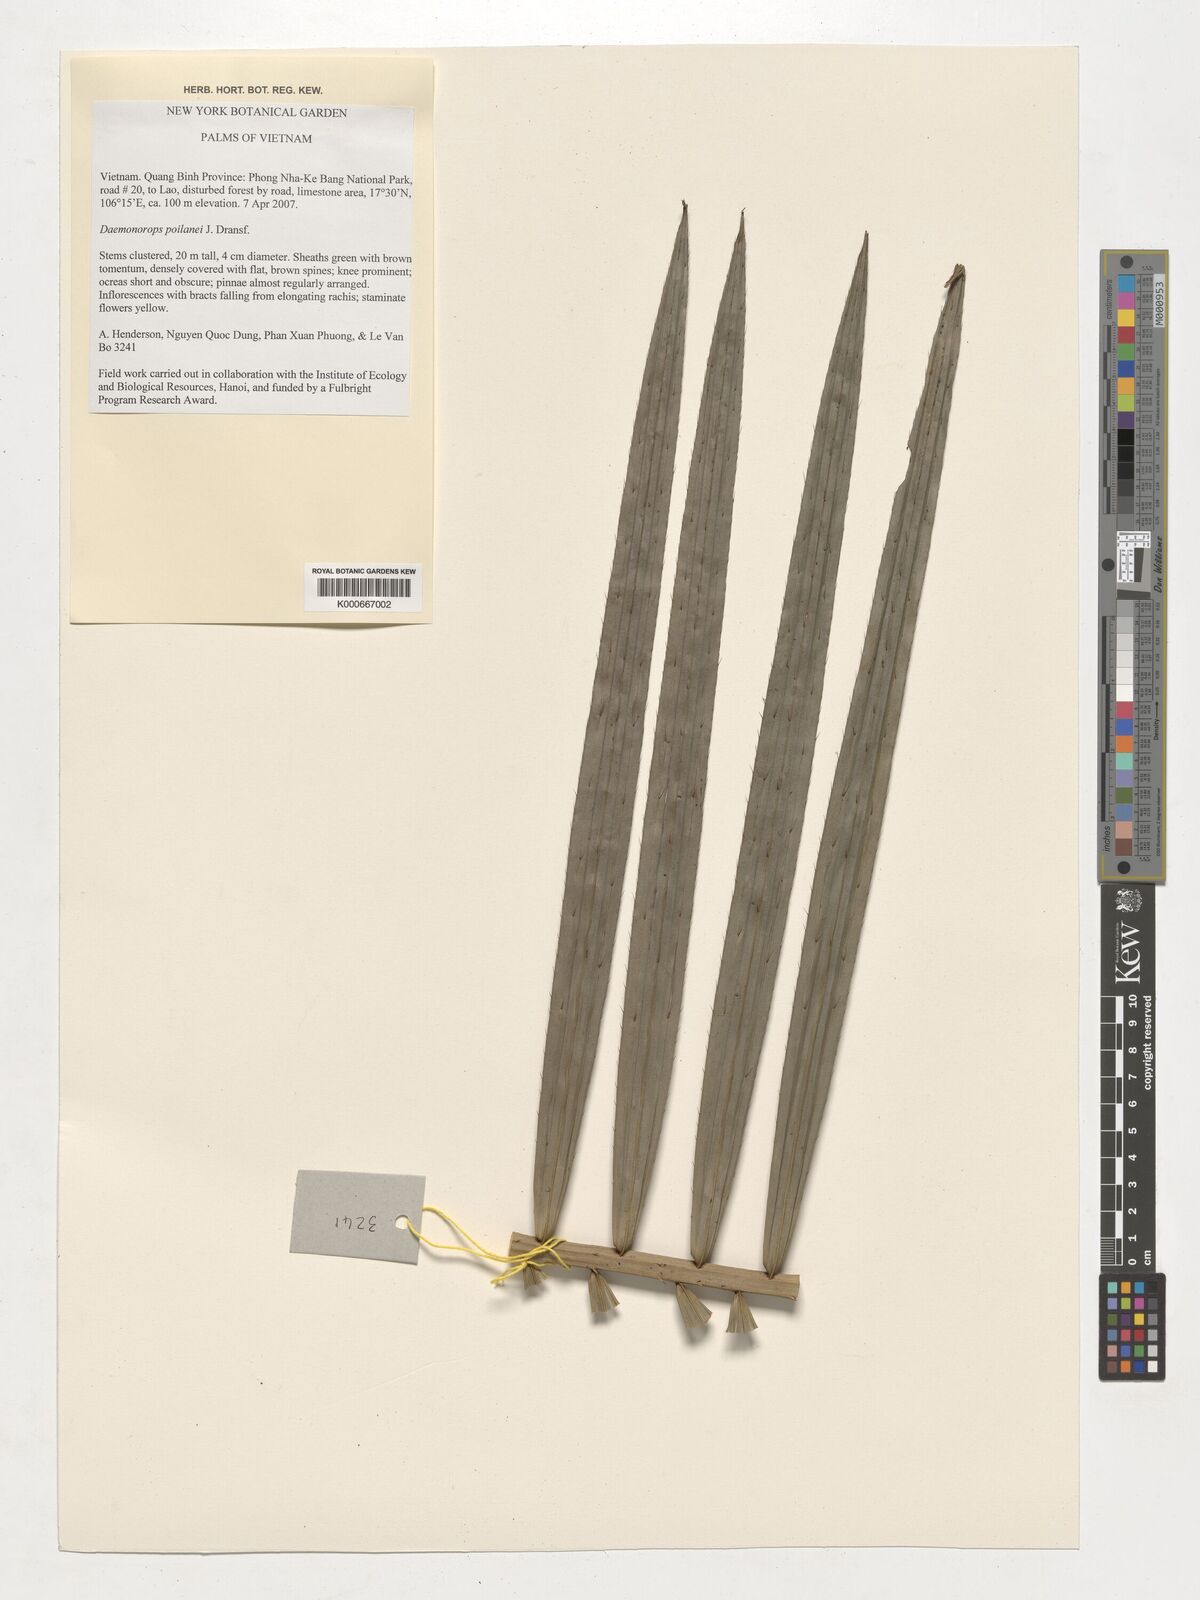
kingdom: Plantae
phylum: Tracheophyta
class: Liliopsida
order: Arecales
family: Arecaceae
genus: Calamus
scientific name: Calamus eugenei
